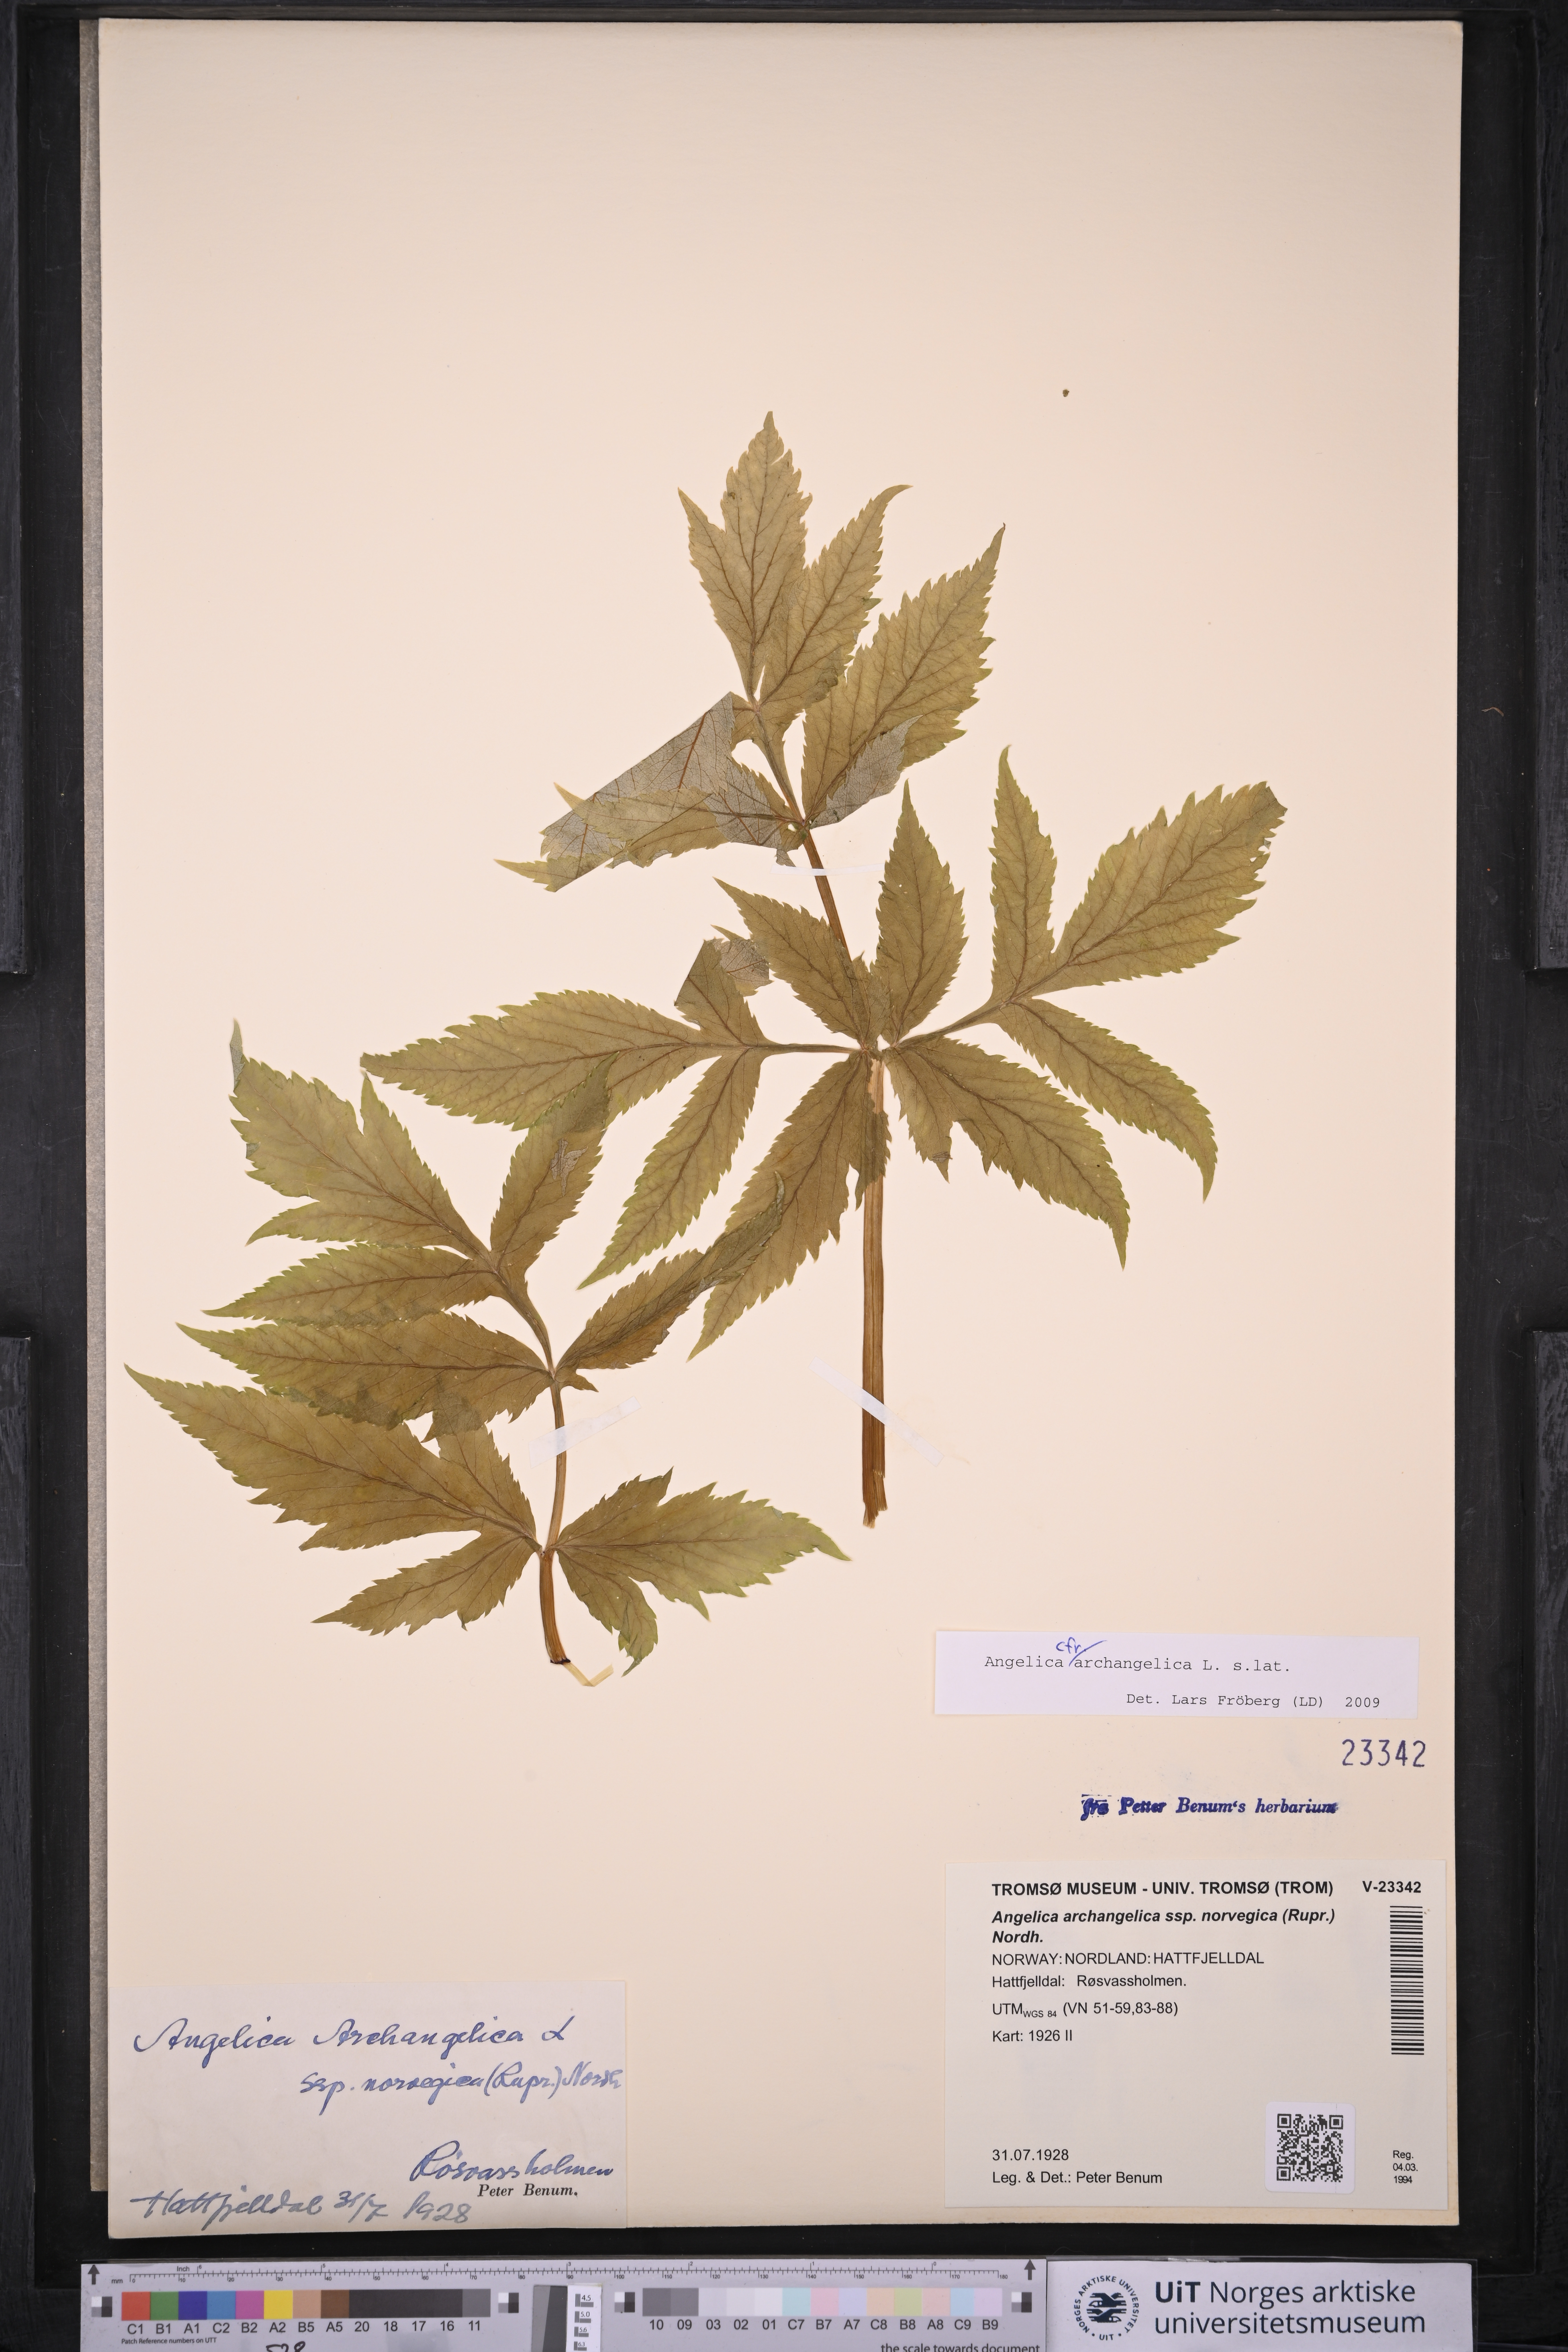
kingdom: Plantae
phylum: Tracheophyta
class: Magnoliopsida
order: Apiales
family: Apiaceae
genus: Angelica
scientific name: Angelica archangelica
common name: Garden angelica
